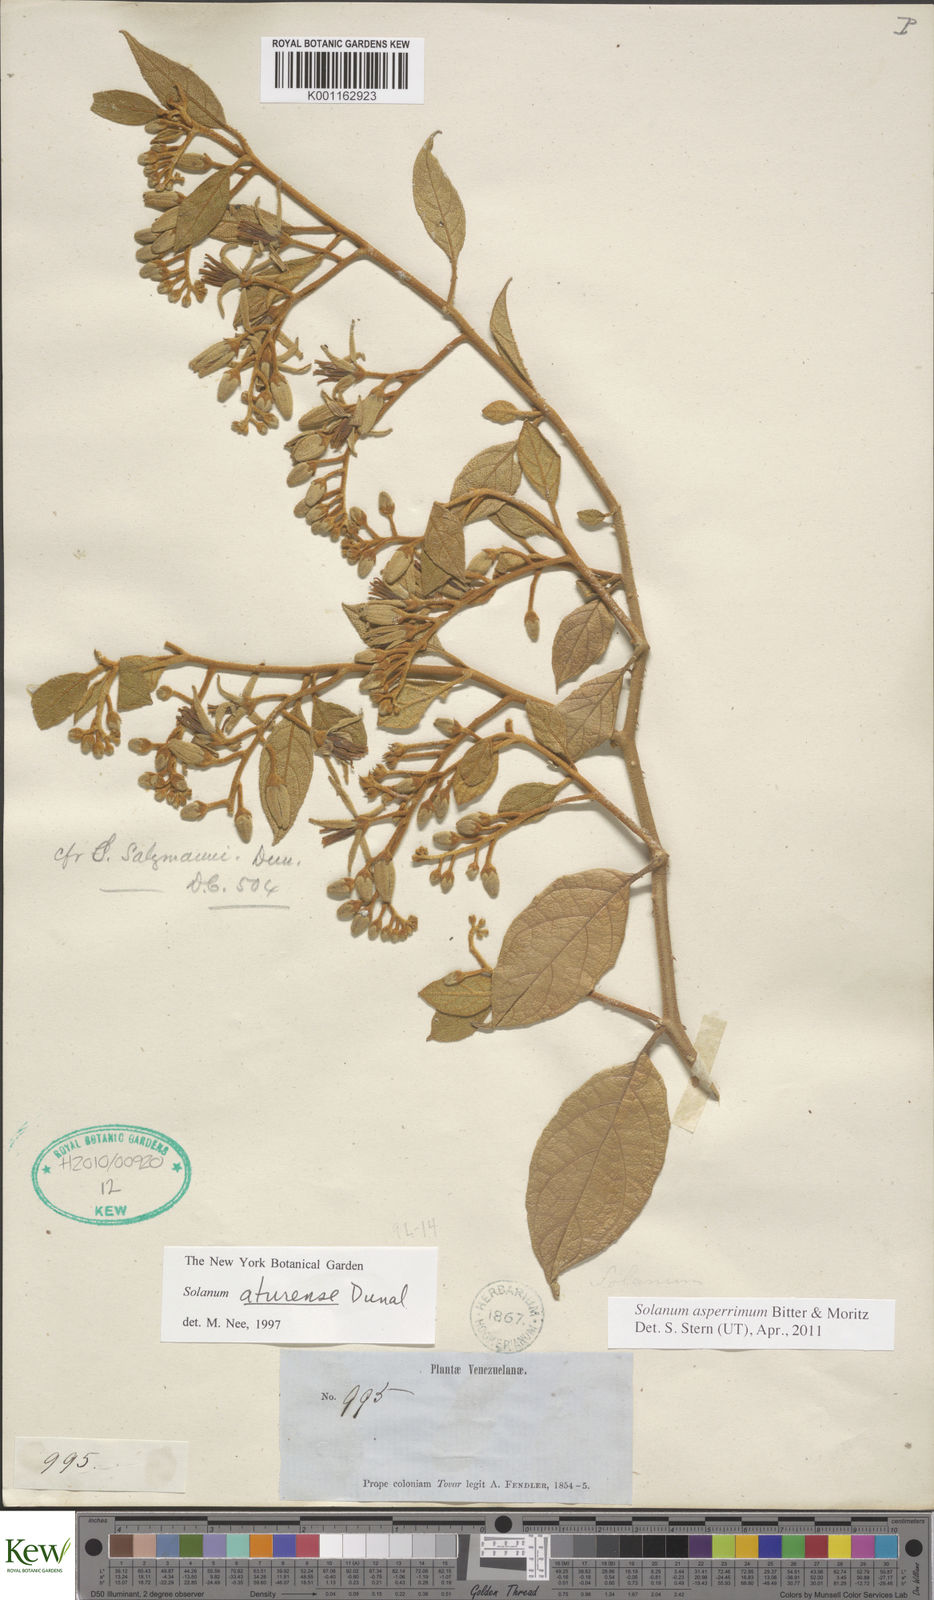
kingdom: Plantae
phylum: Tracheophyta
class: Magnoliopsida
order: Solanales
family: Solanaceae
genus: Solanum
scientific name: Solanum aturense
